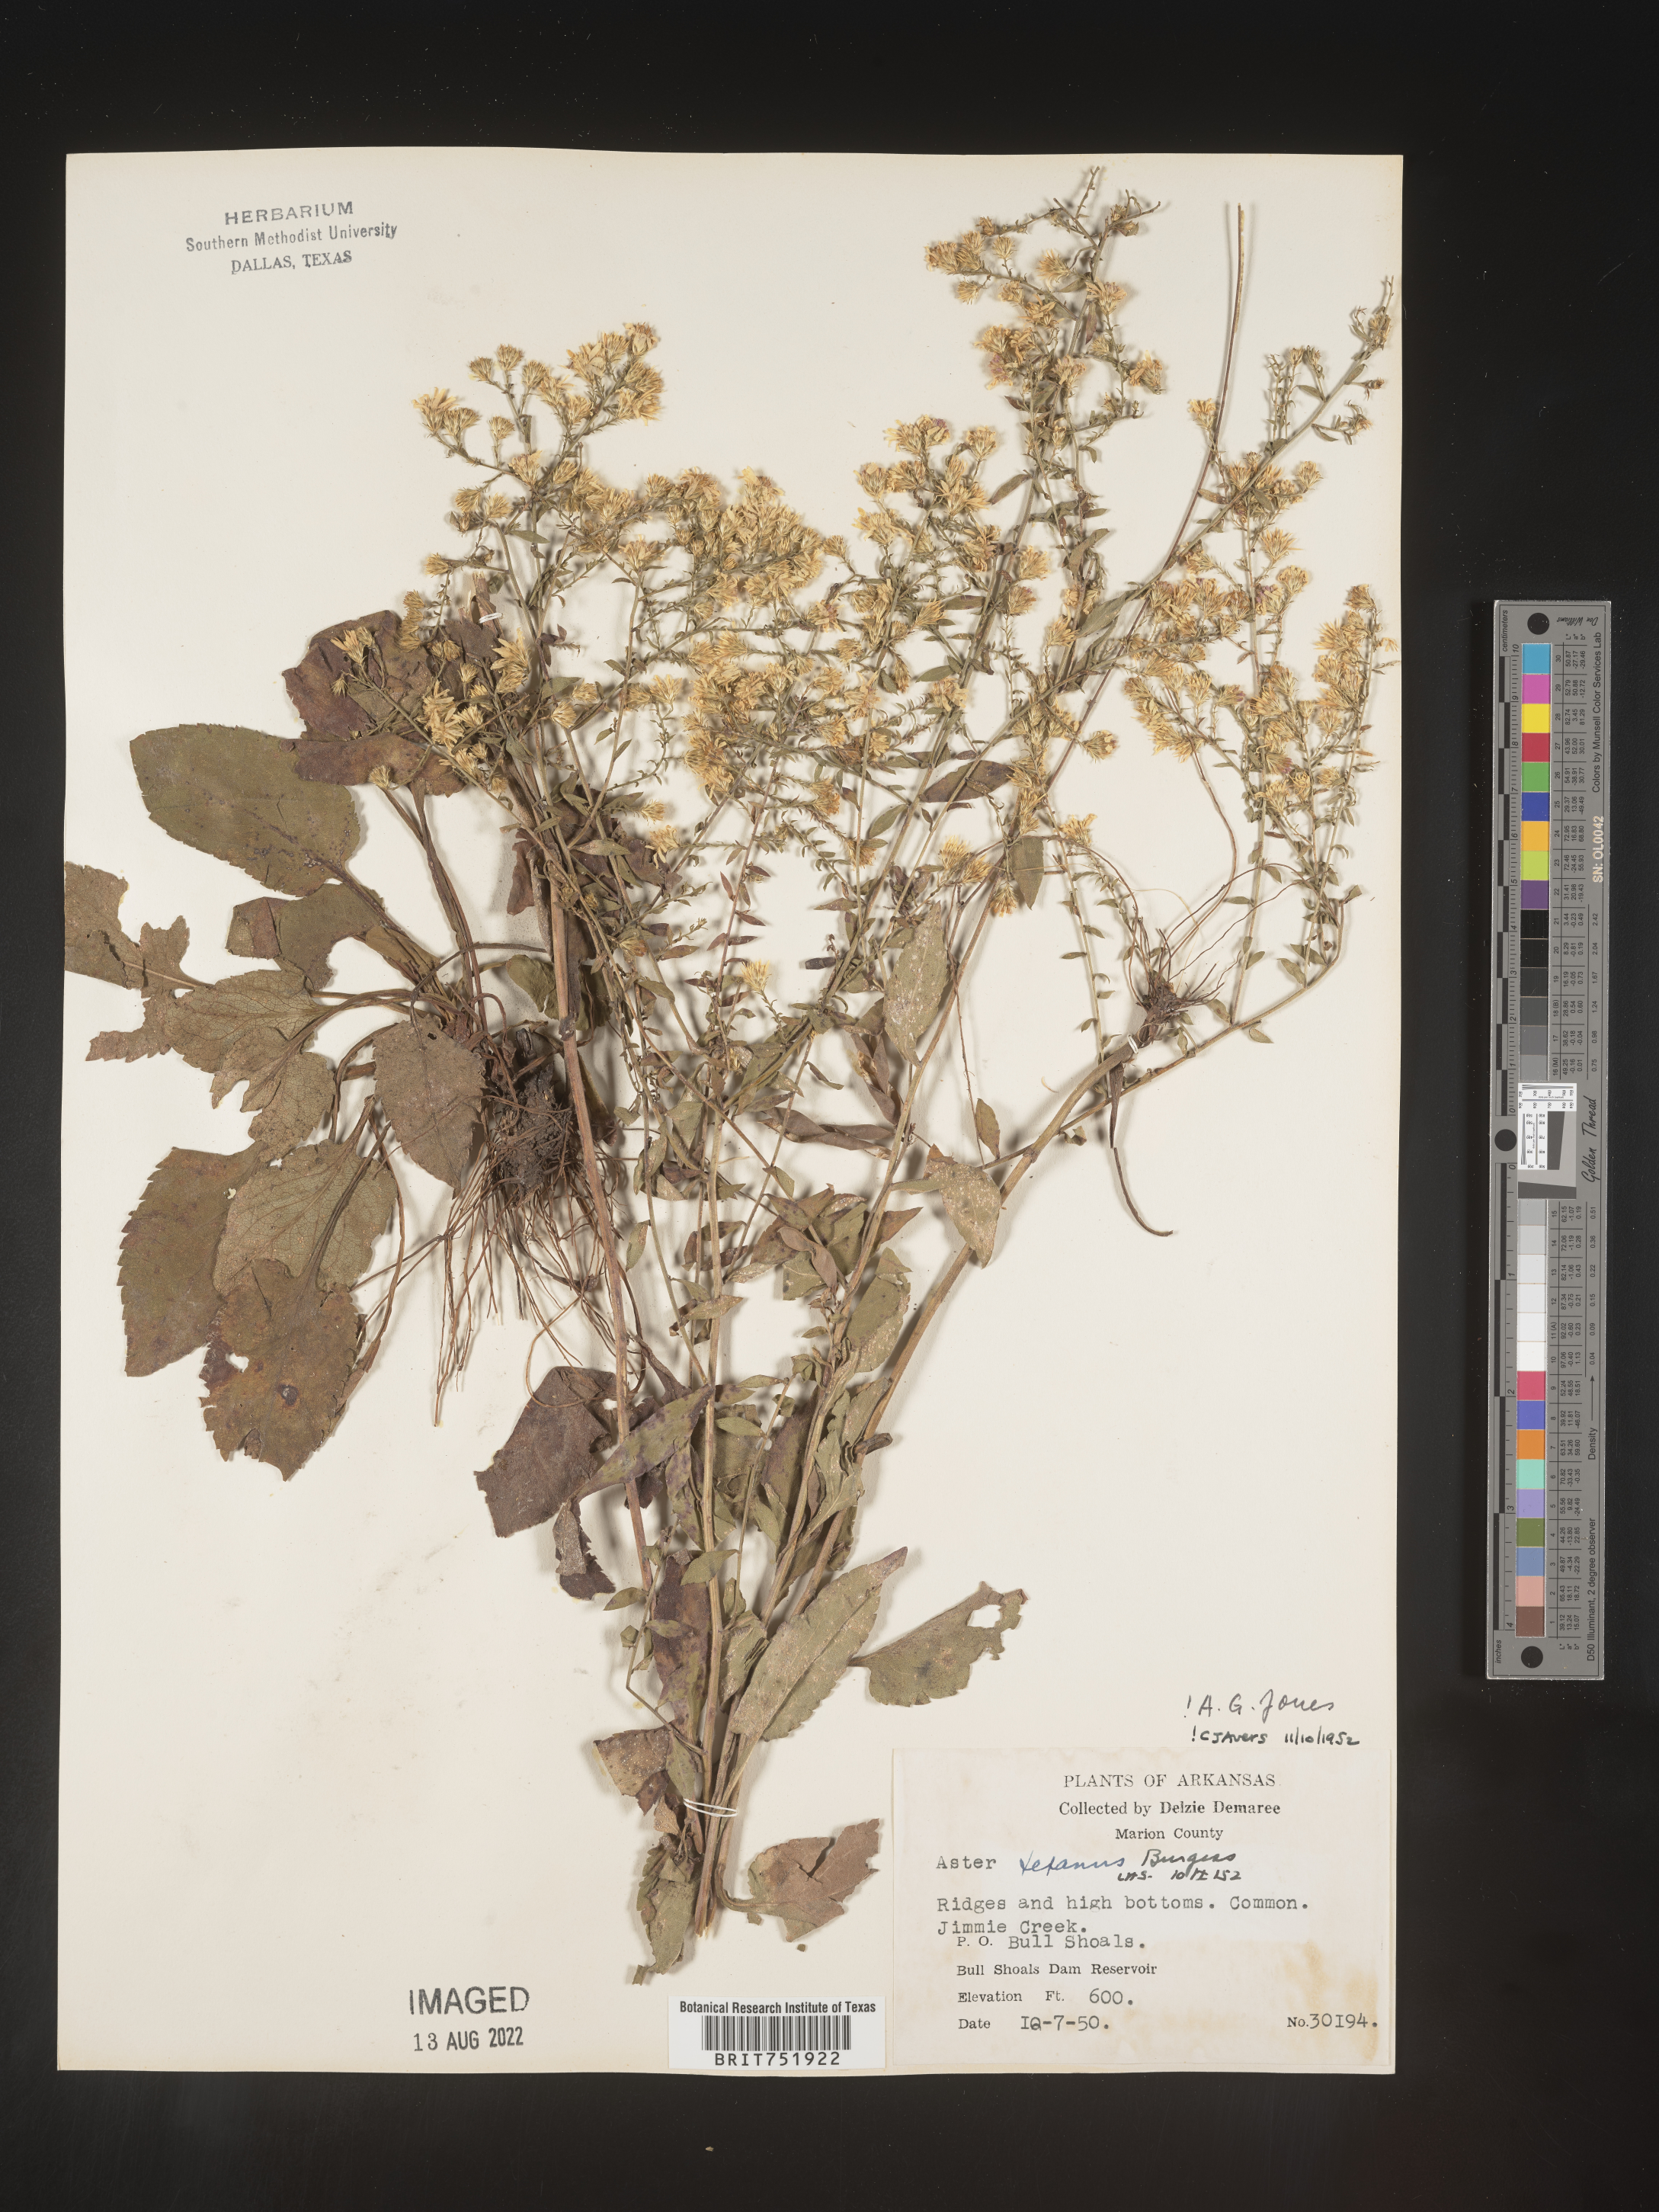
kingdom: Plantae
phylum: Tracheophyta
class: Magnoliopsida
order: Asterales
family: Asteraceae
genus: Symphyotrichum
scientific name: Symphyotrichum drummondii
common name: Drummond's aster
